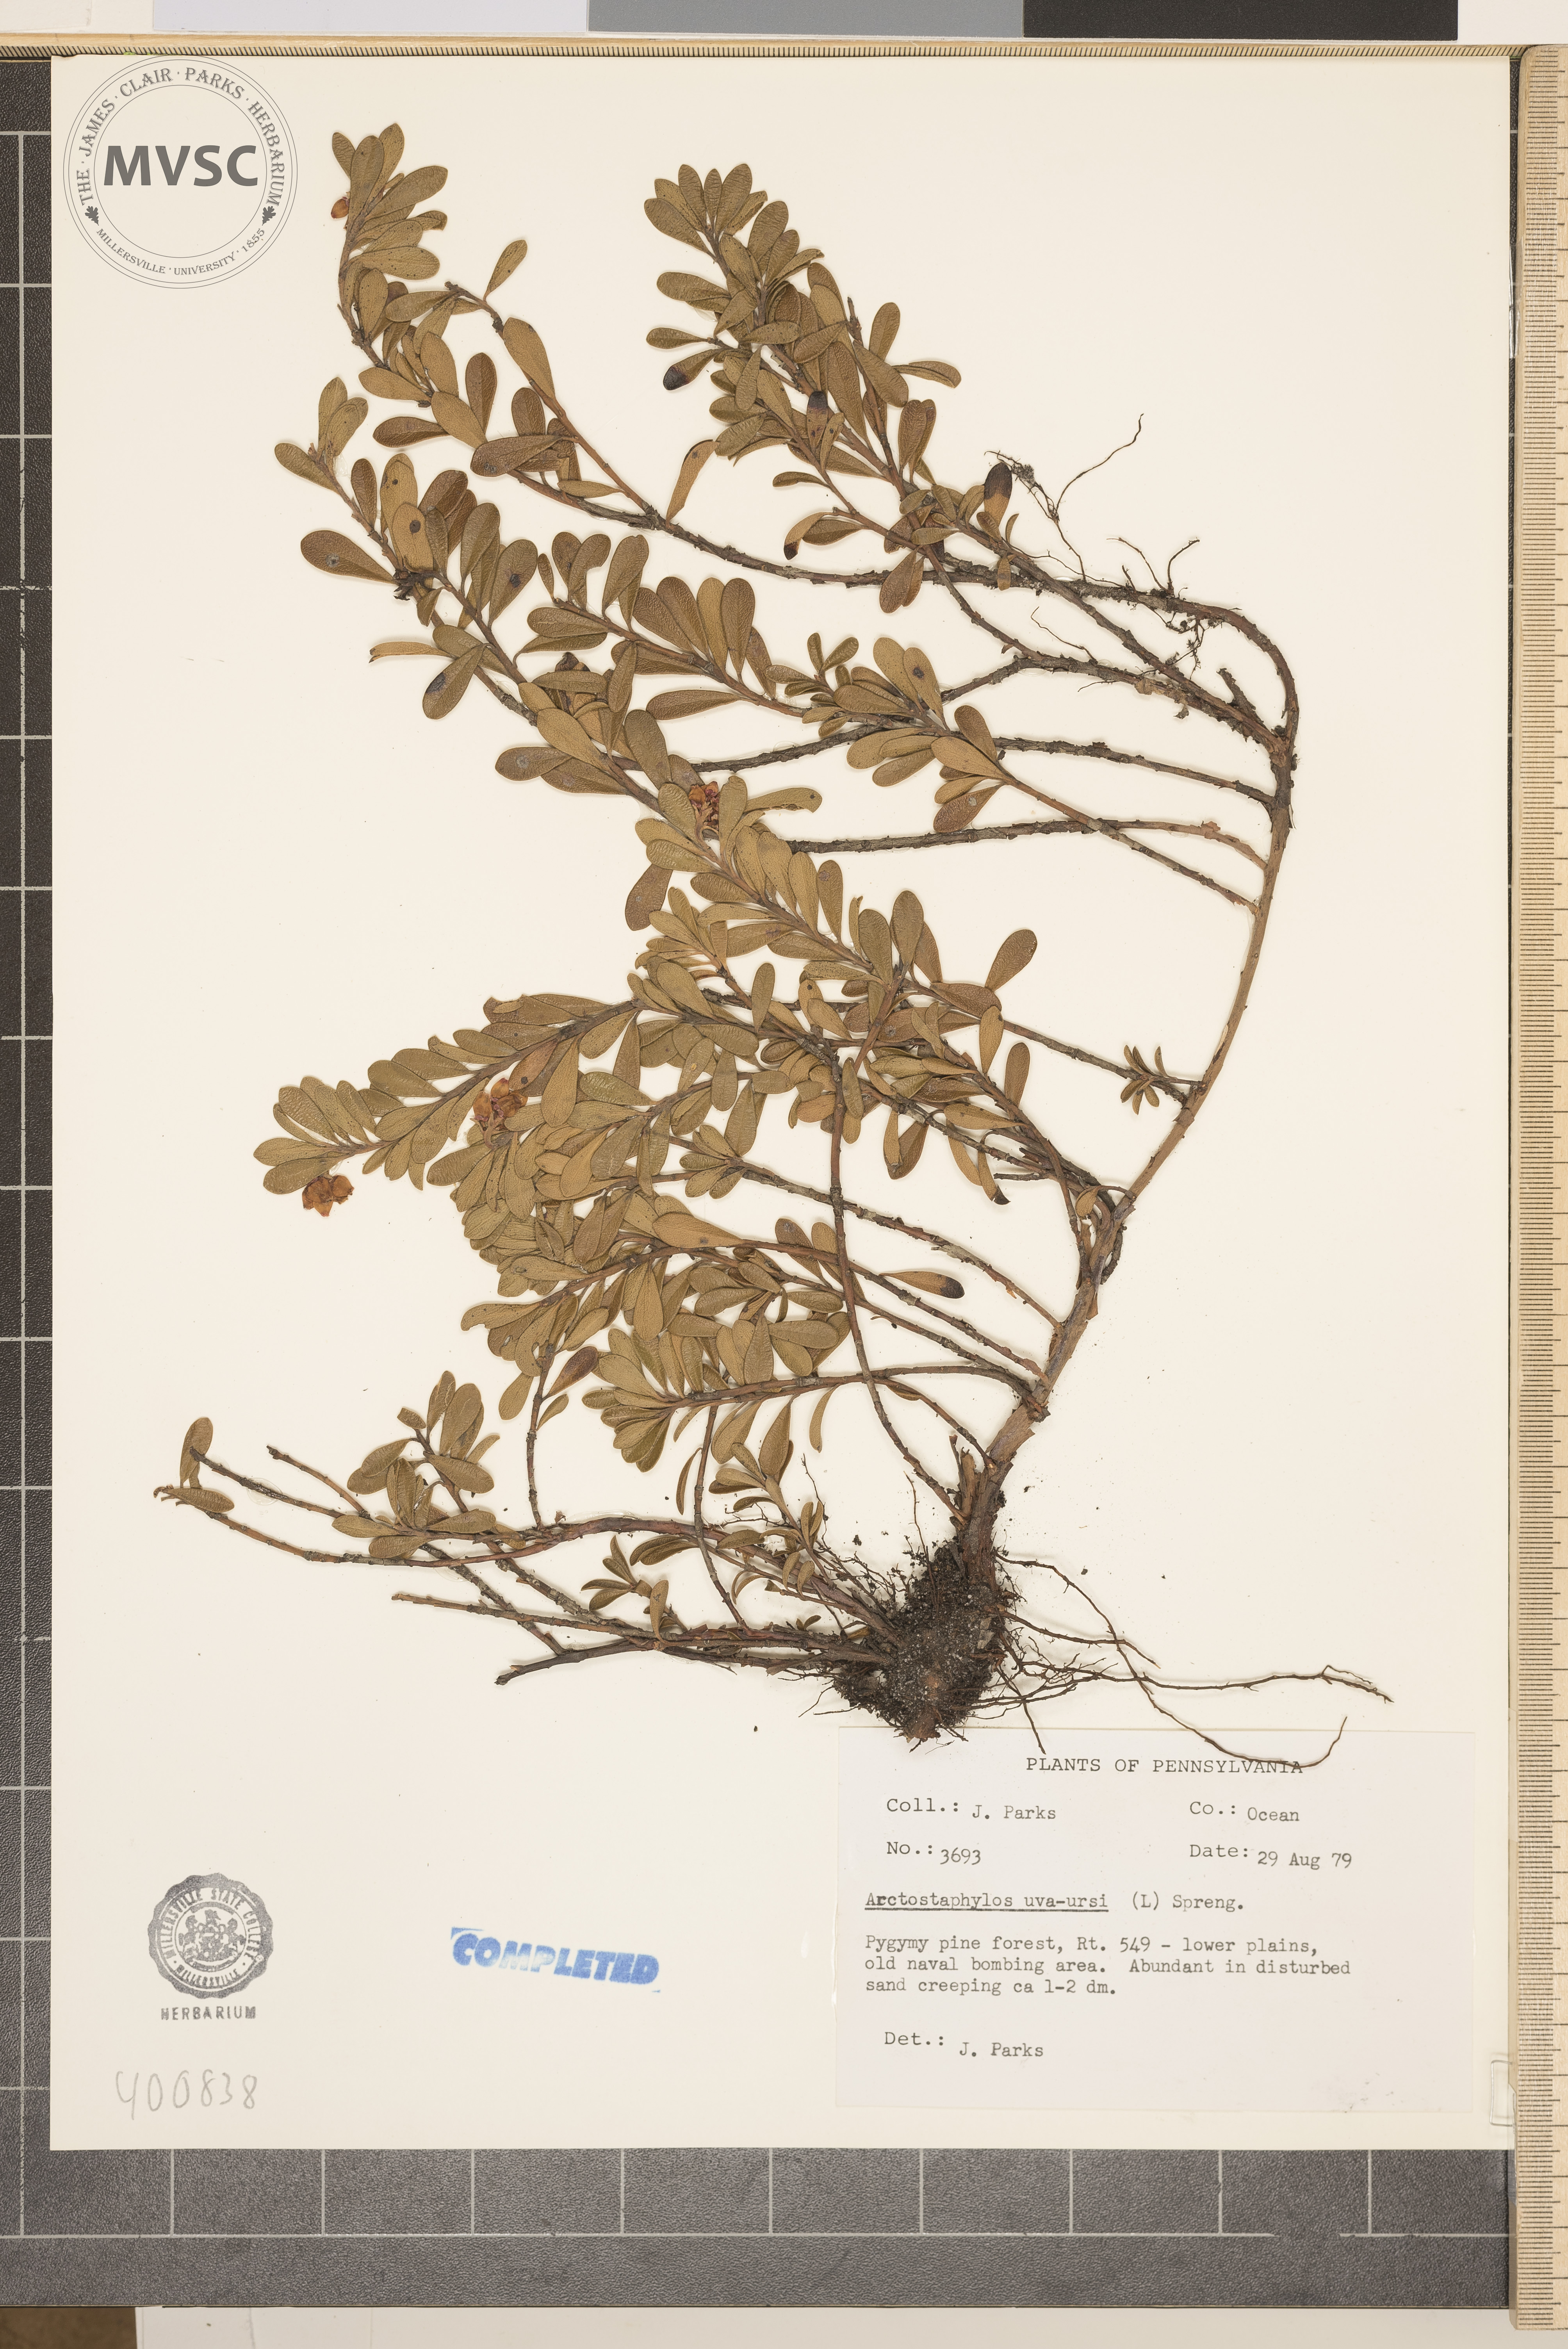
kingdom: Plantae
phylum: Tracheophyta
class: Magnoliopsida
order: Ericales
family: Ericaceae
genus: Arctostaphylos
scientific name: Arctostaphylos uva-ursi
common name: Bearberry
